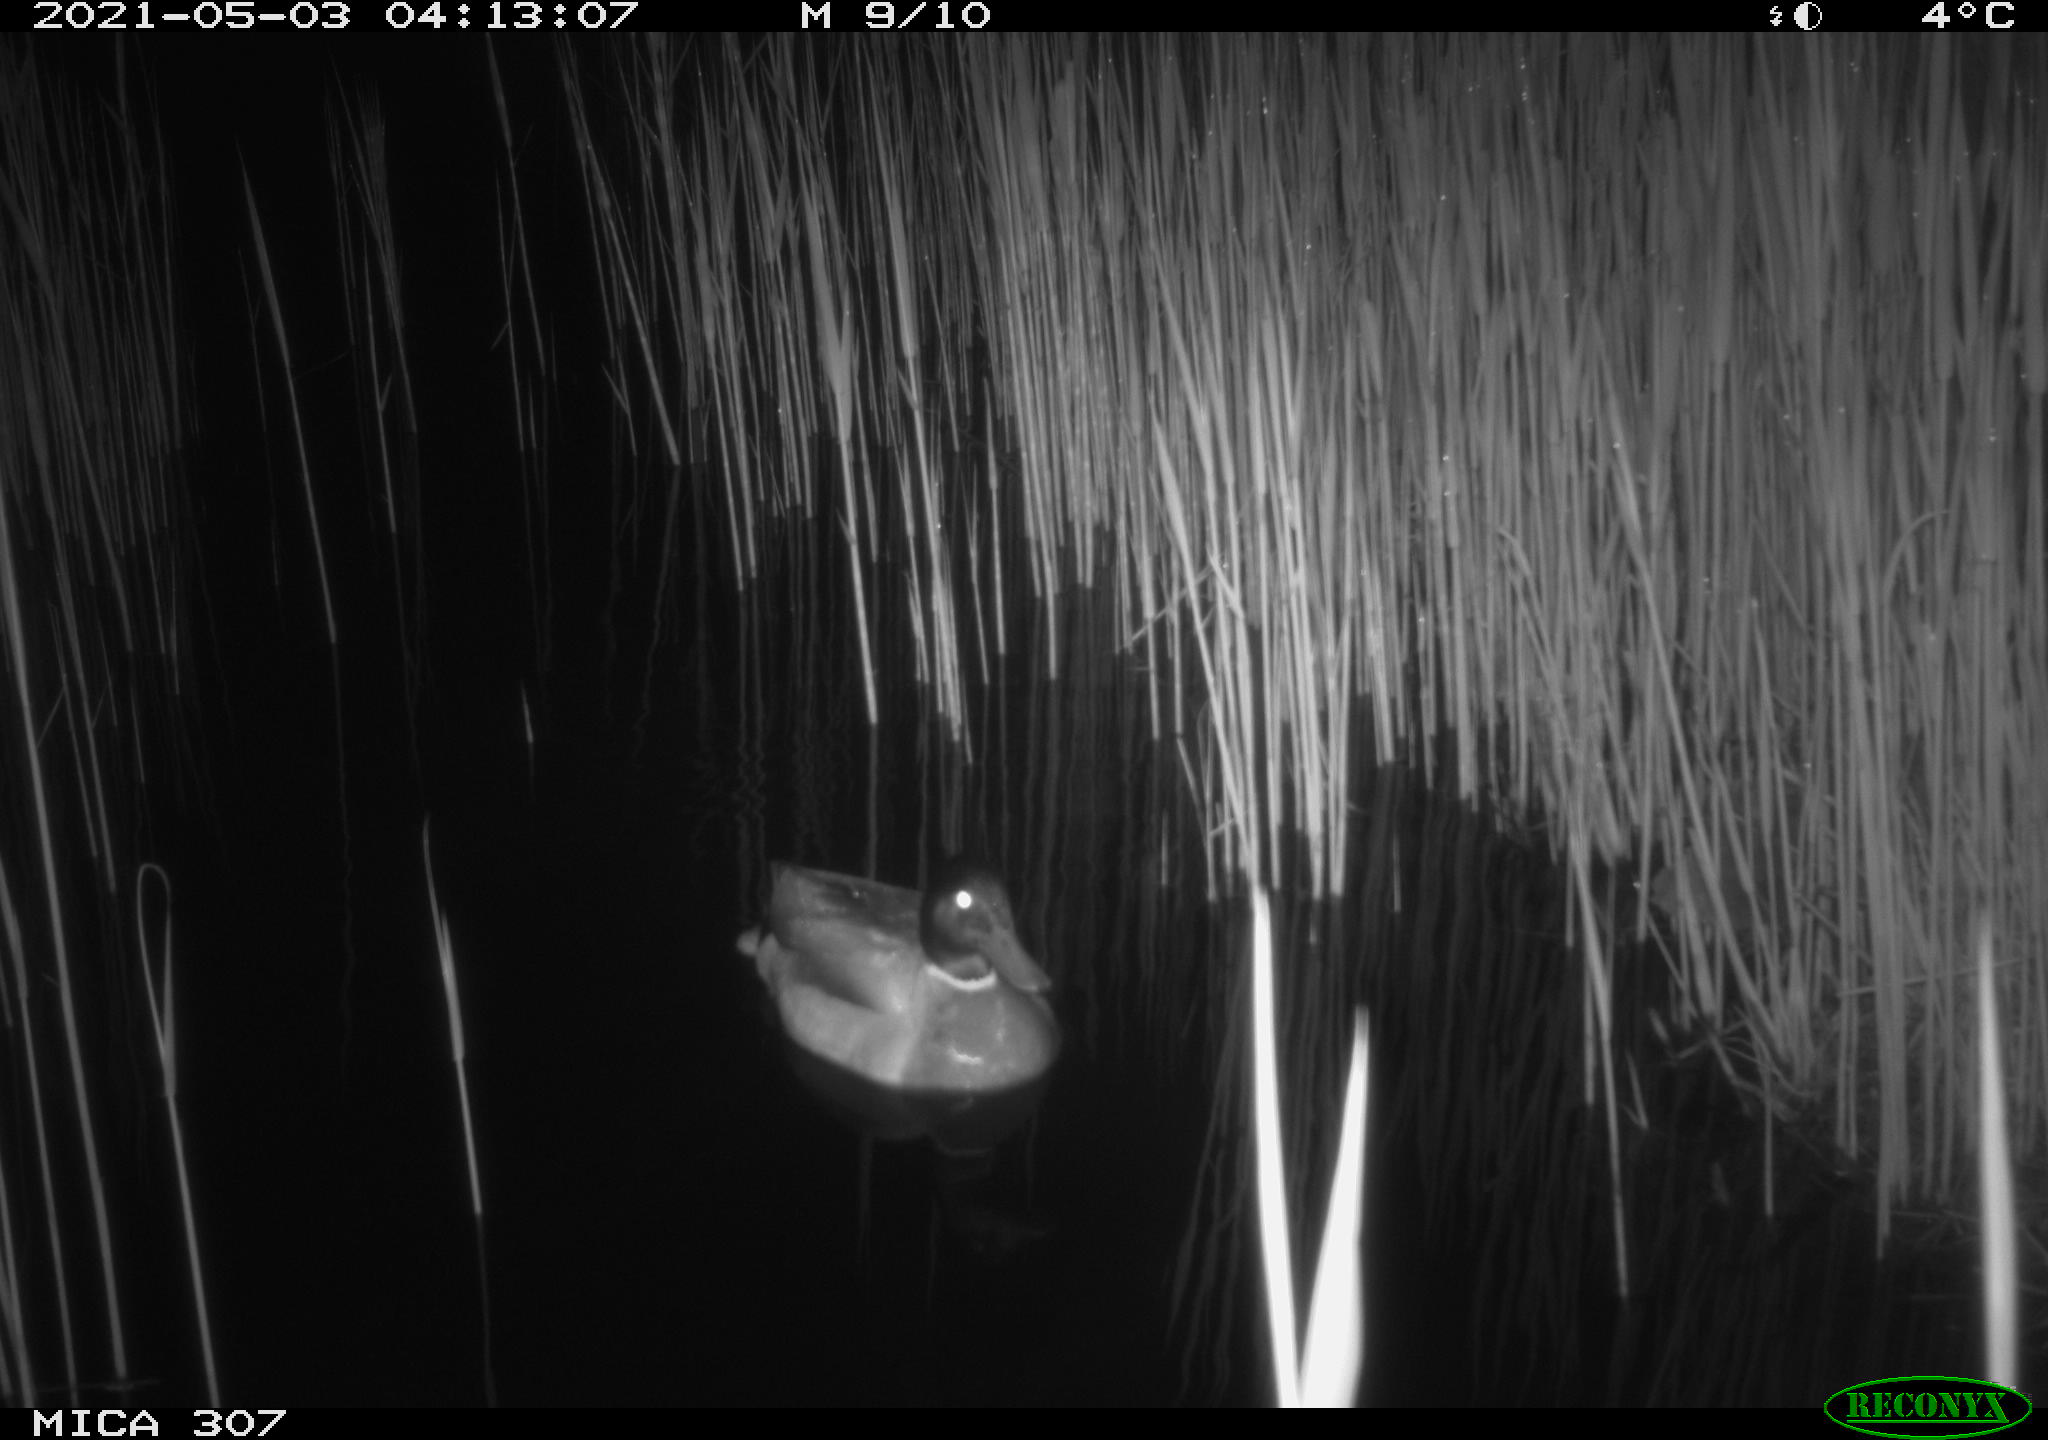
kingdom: Animalia
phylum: Chordata
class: Aves
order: Gruiformes
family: Rallidae
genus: Gallinula
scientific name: Gallinula chloropus
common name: Common moorhen
